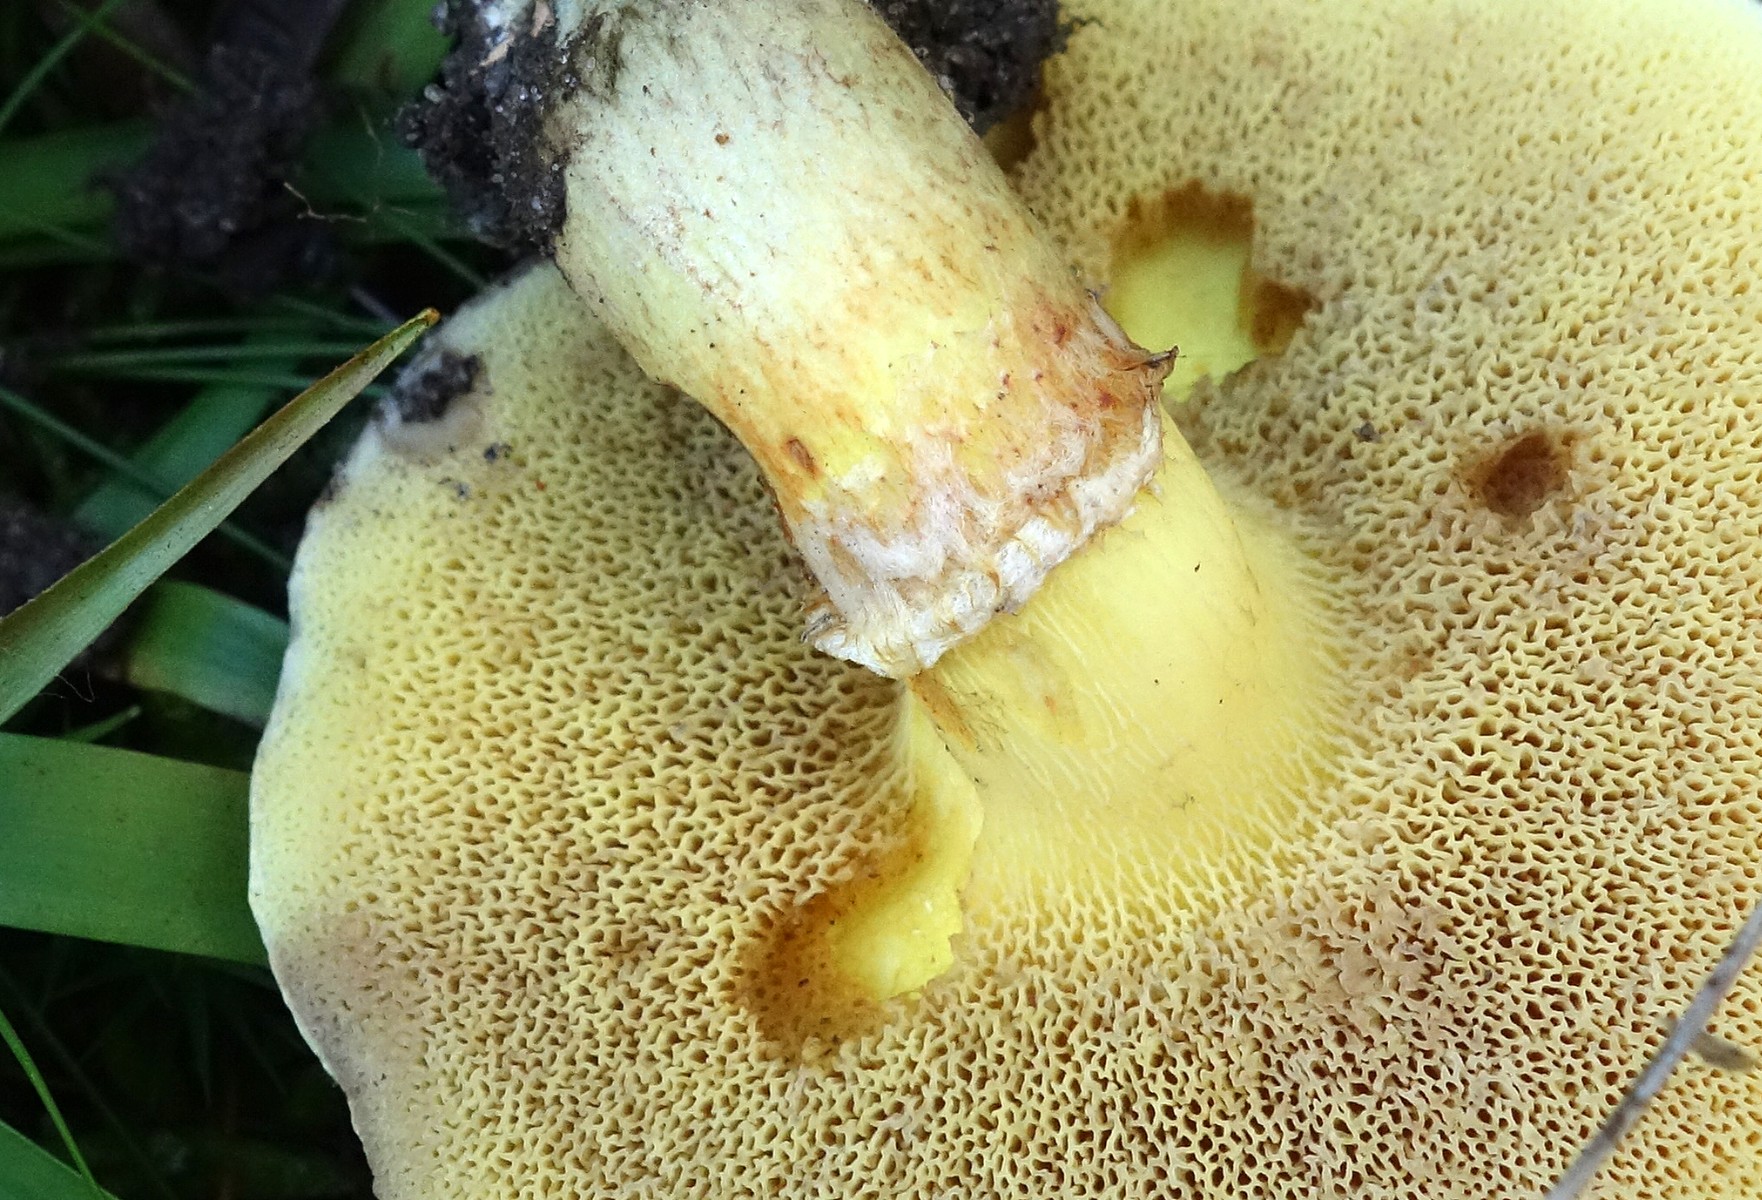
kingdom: Fungi
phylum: Basidiomycota
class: Agaricomycetes
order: Boletales
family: Suillaceae
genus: Suillus
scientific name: Suillus grevillei
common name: lærke-slimrørhat
